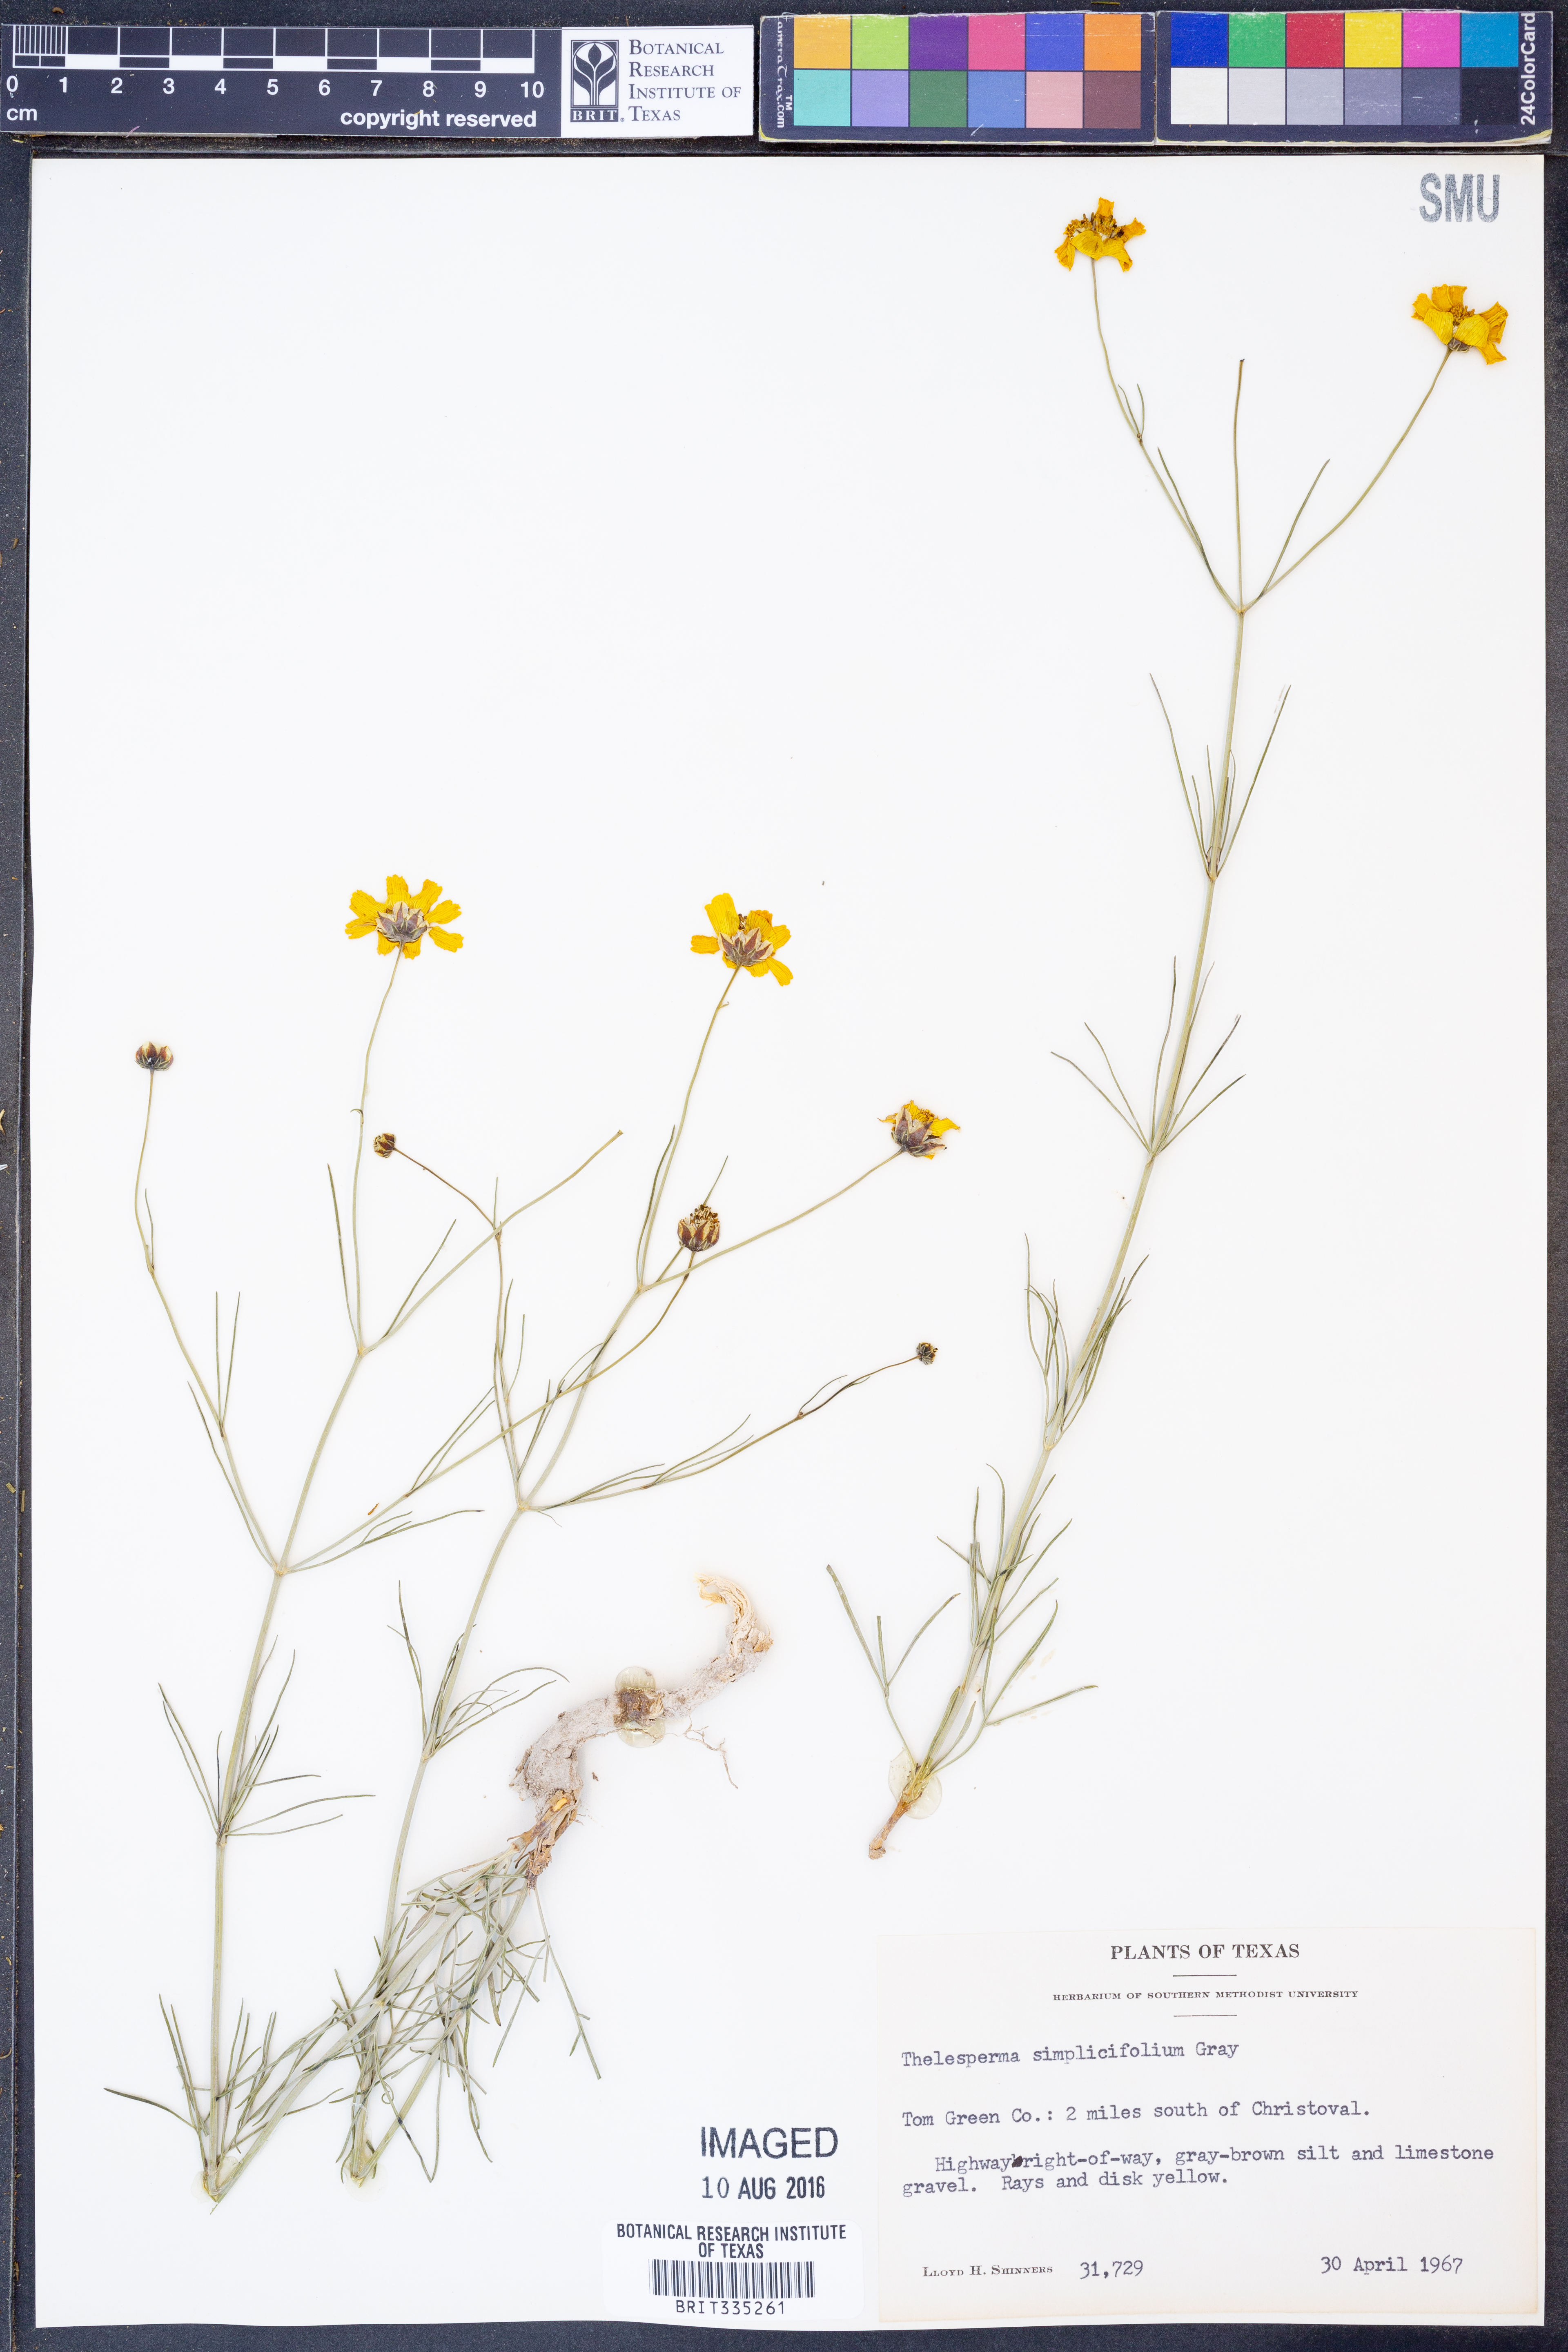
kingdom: Plantae
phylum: Tracheophyta
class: Magnoliopsida
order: Asterales
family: Asteraceae
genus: Thelesperma
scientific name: Thelesperma simplicifolium
